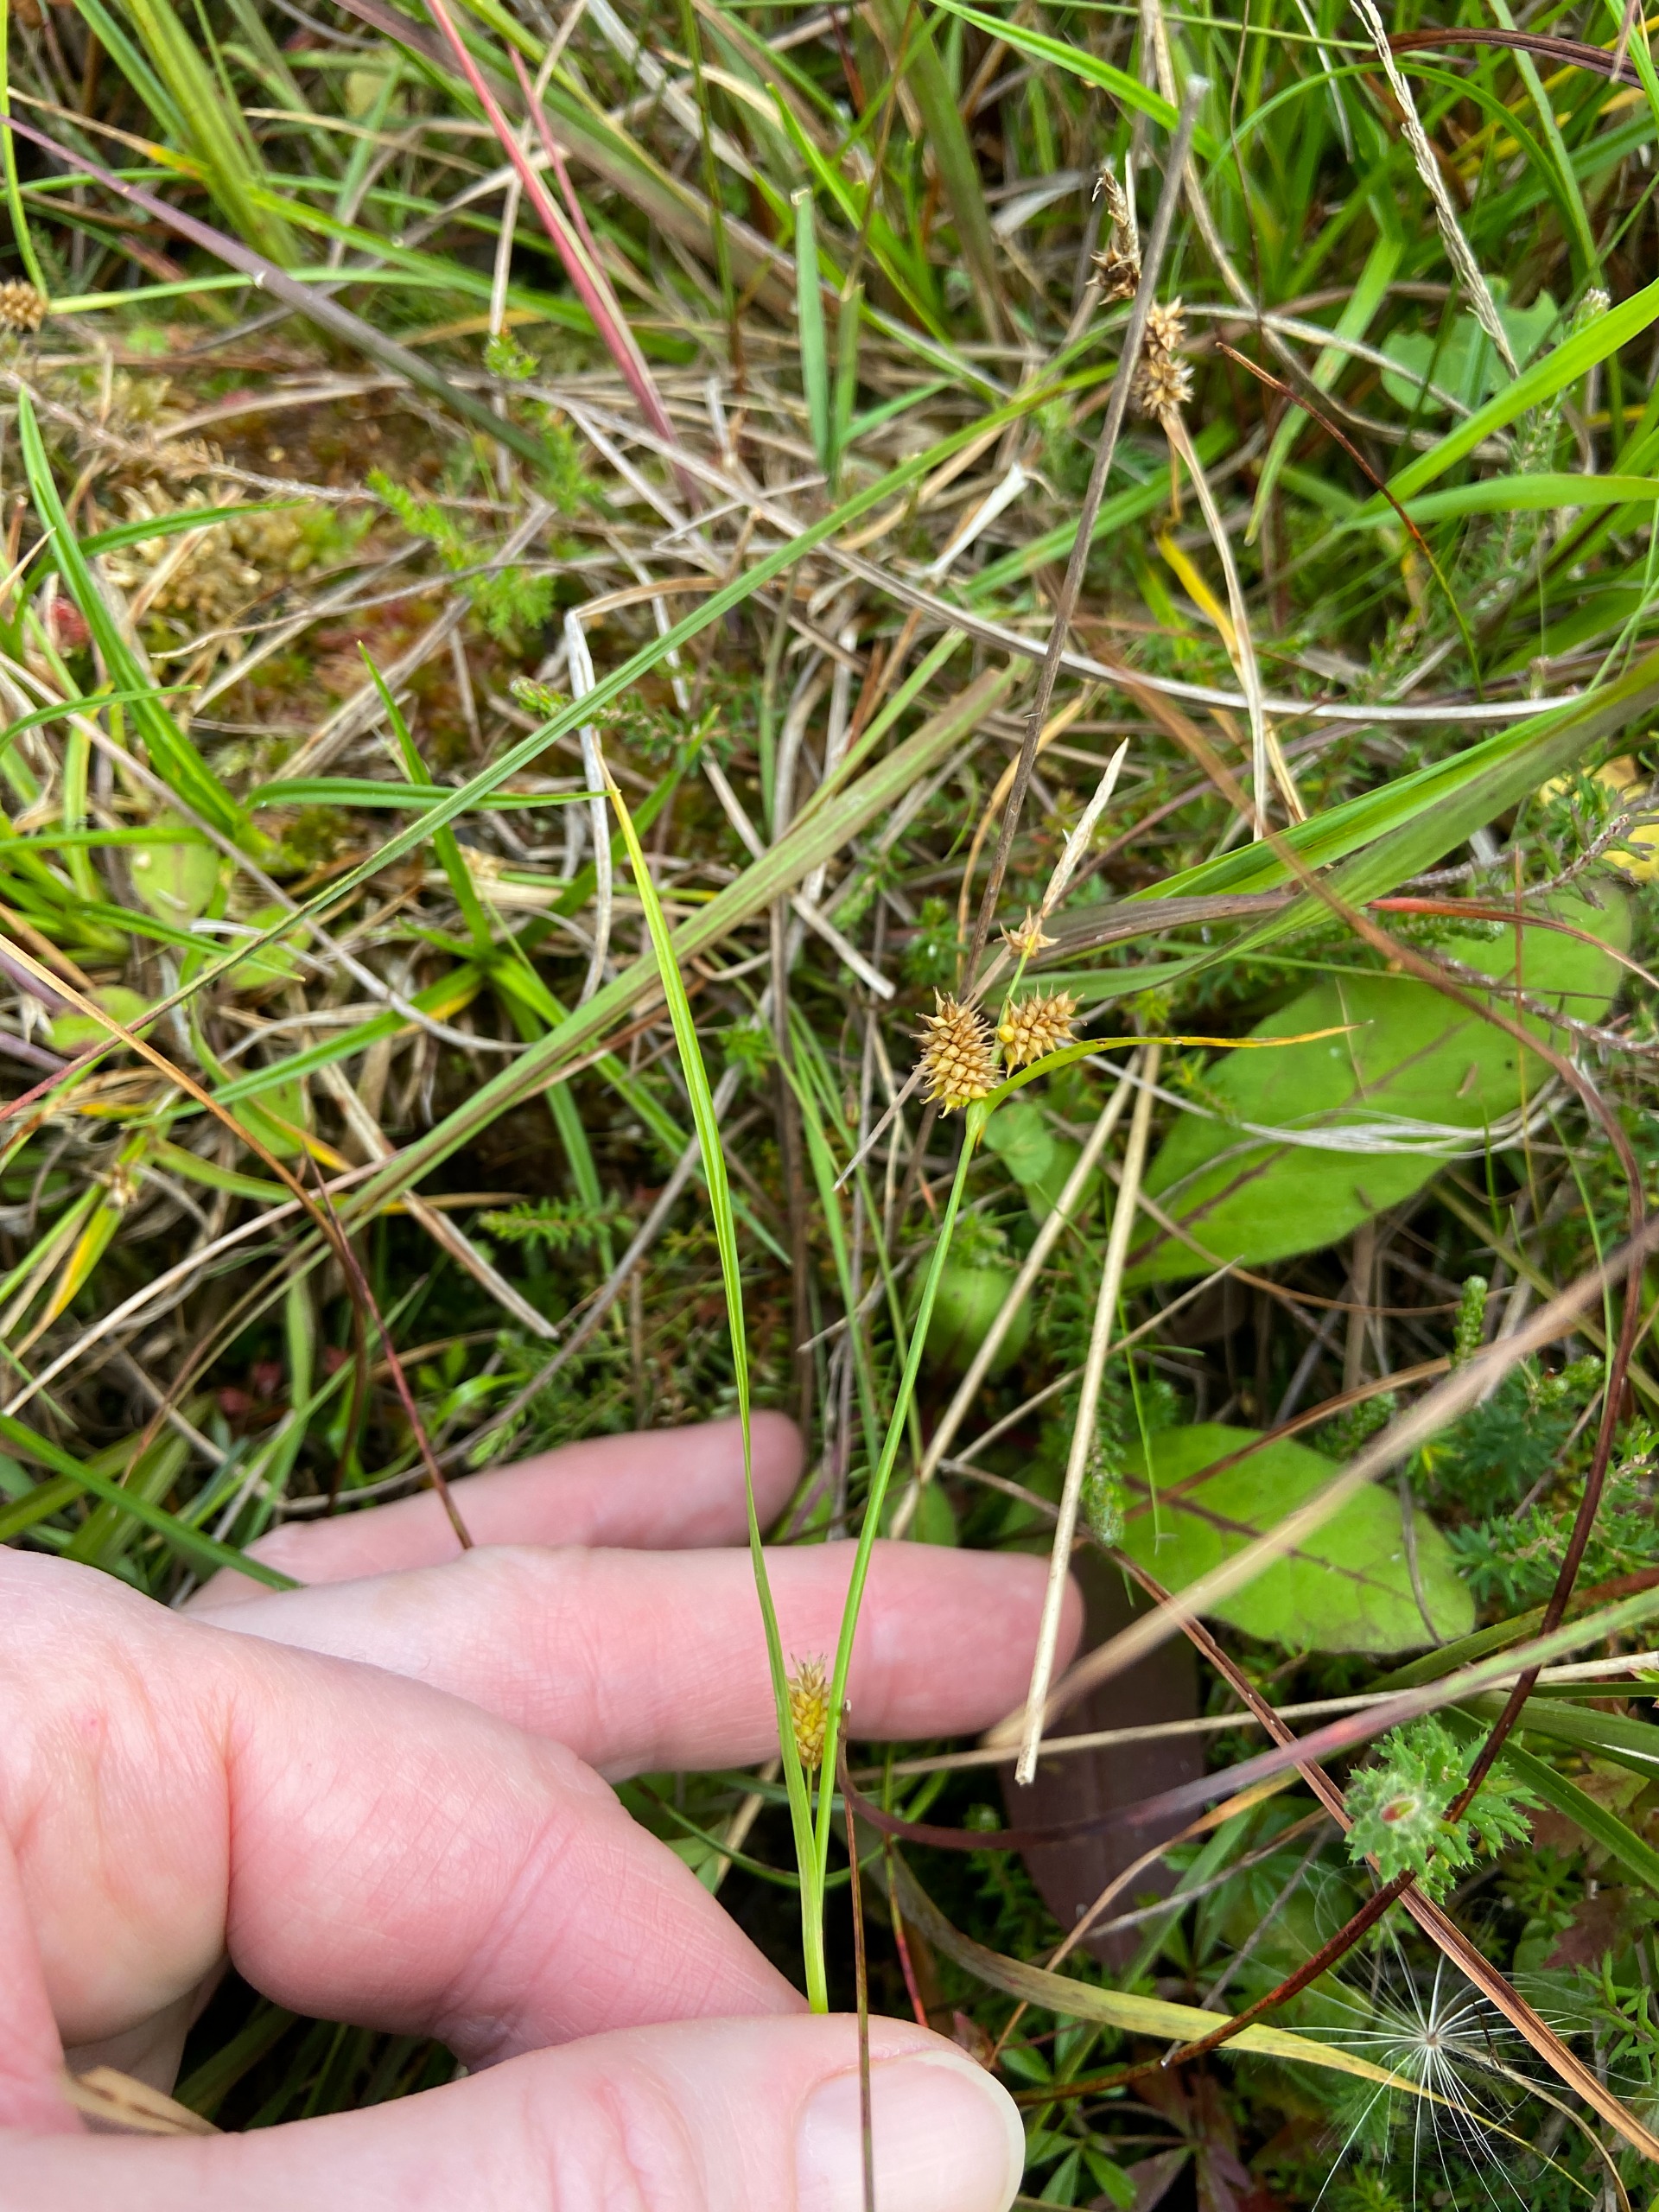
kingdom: Plantae
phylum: Tracheophyta
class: Liliopsida
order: Poales
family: Cyperaceae
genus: Carex
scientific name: Carex demissa
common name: Grøn star
